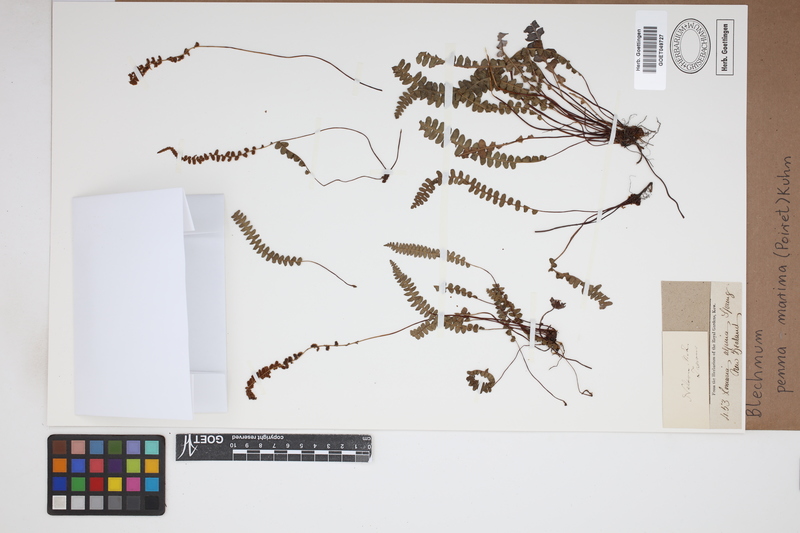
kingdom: Plantae
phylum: Tracheophyta
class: Polypodiopsida
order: Polypodiales
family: Blechnaceae
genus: Austroblechnum
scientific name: Austroblechnum penna-marina
